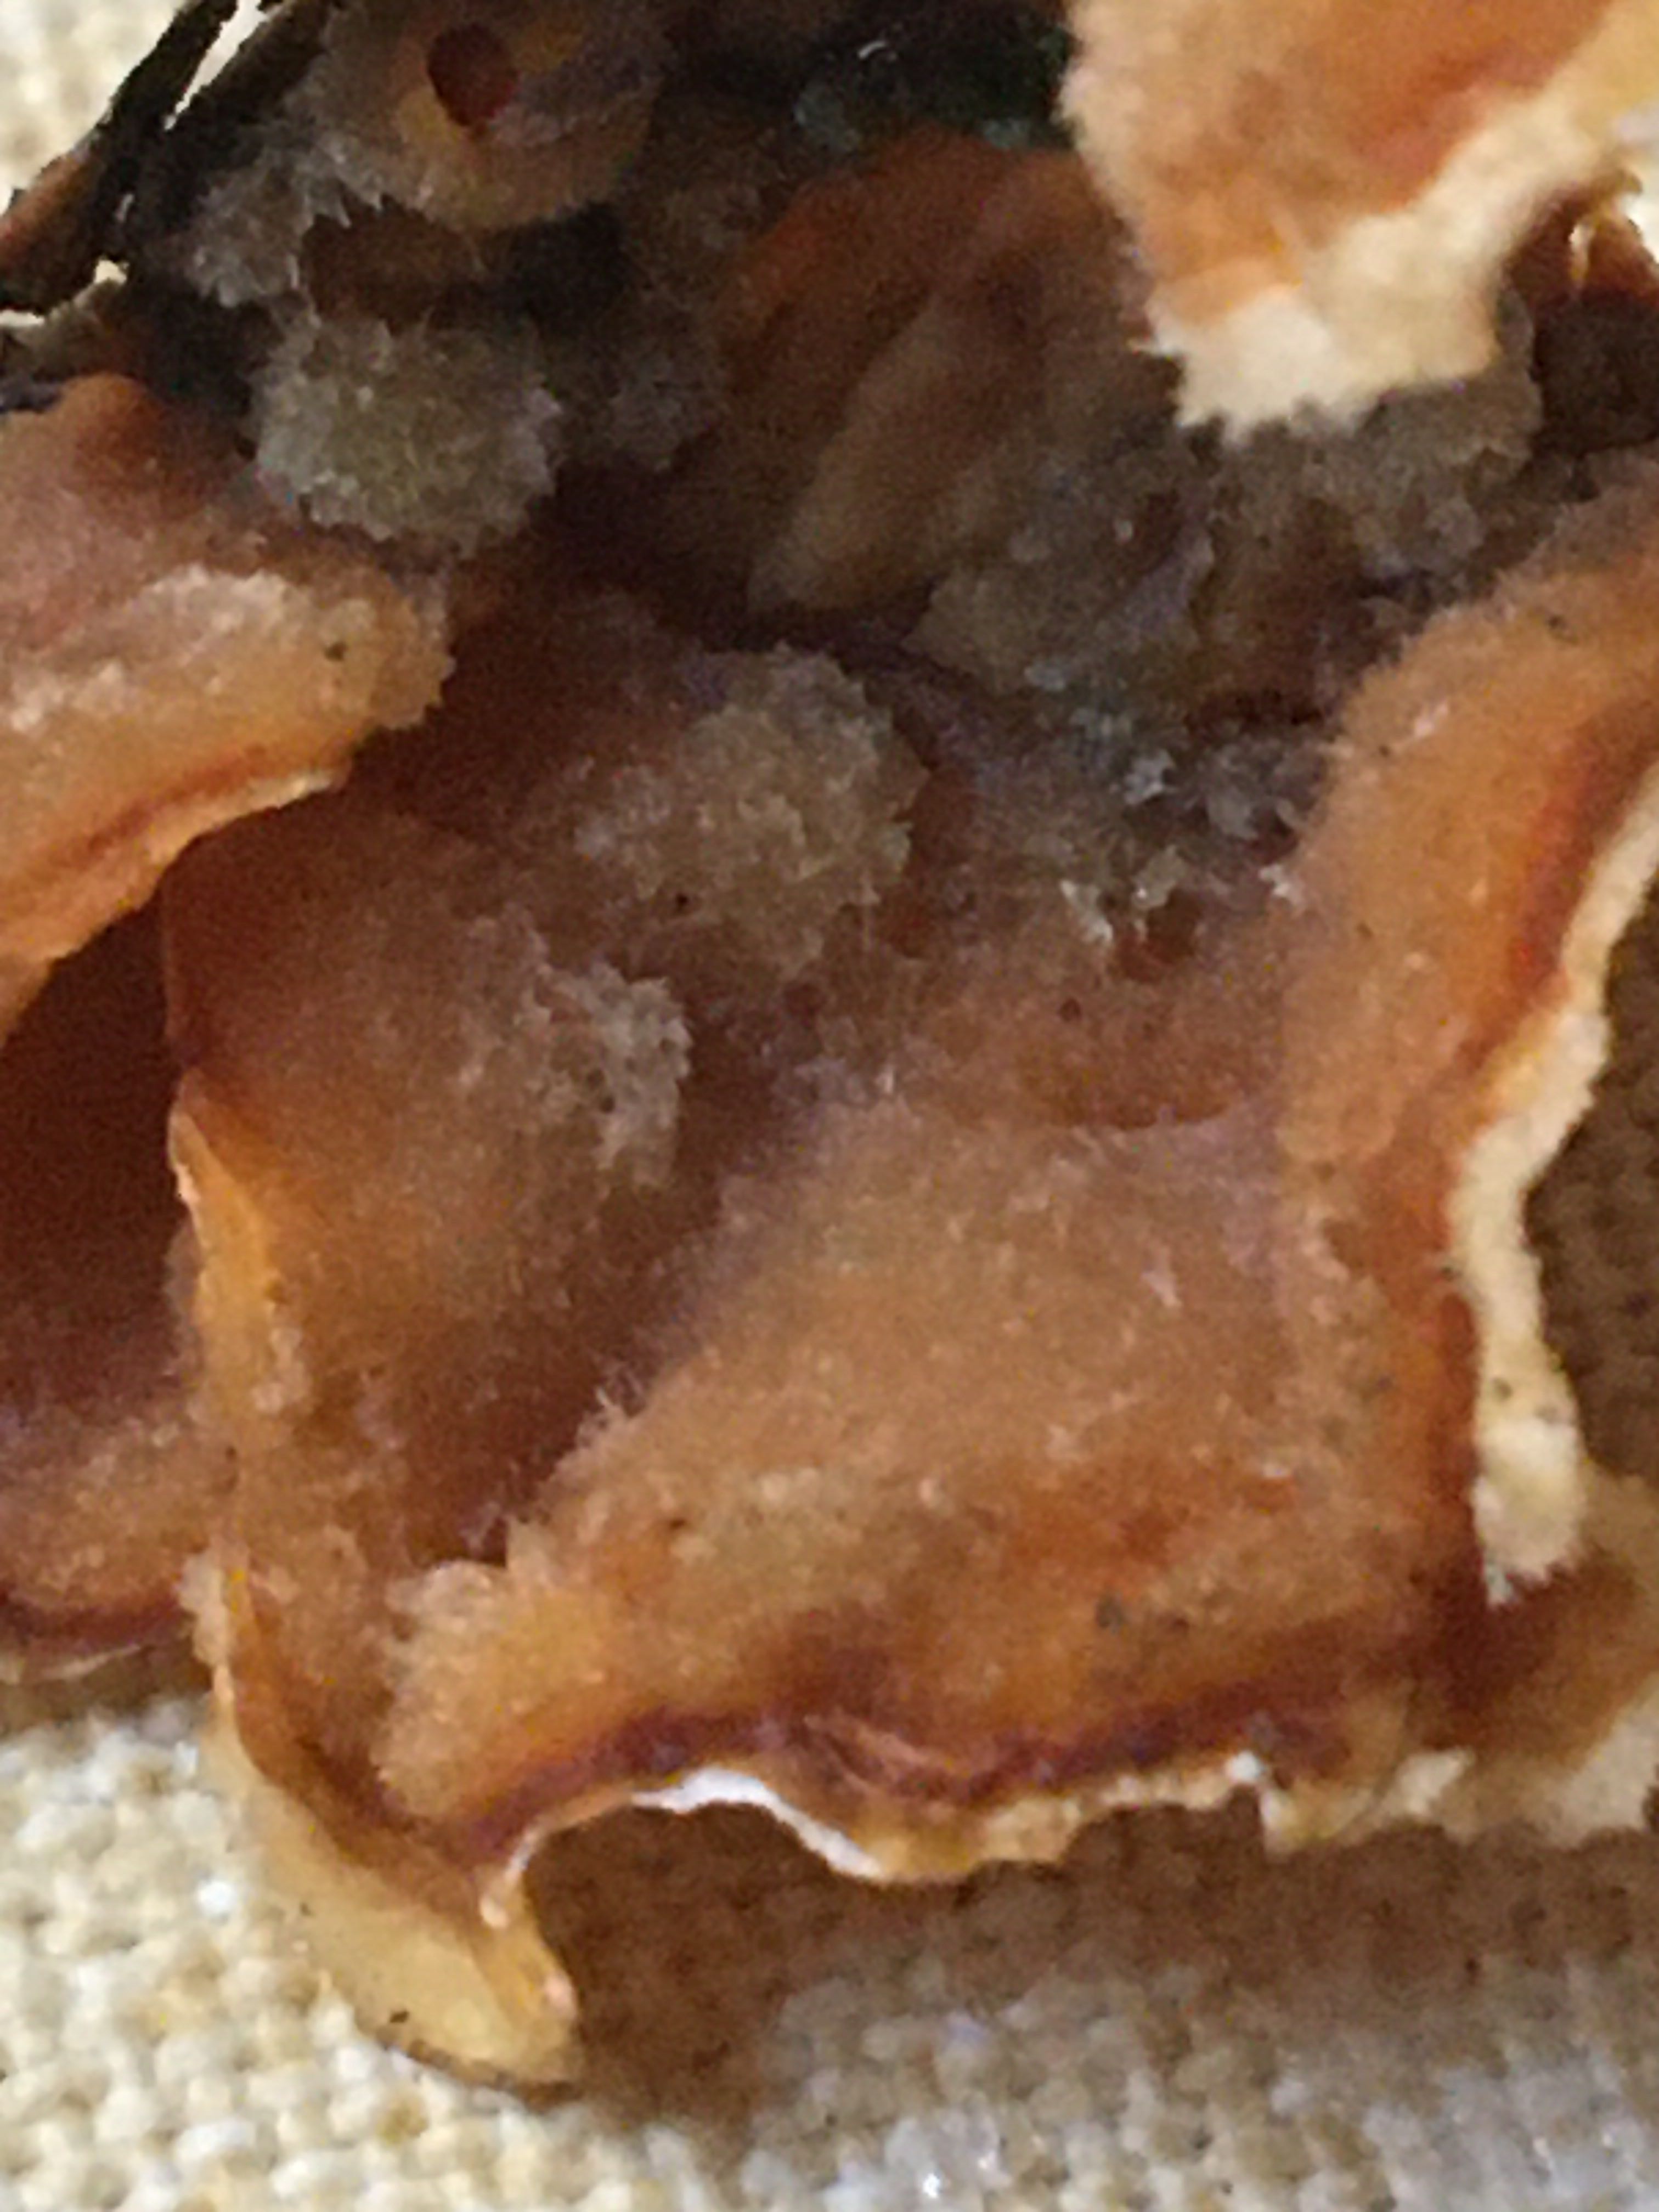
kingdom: Fungi
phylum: Basidiomycota
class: Agaricomycetes
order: Russulales
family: Stereaceae
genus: Stereum
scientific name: Stereum hirsutum
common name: håret lædersvamp
